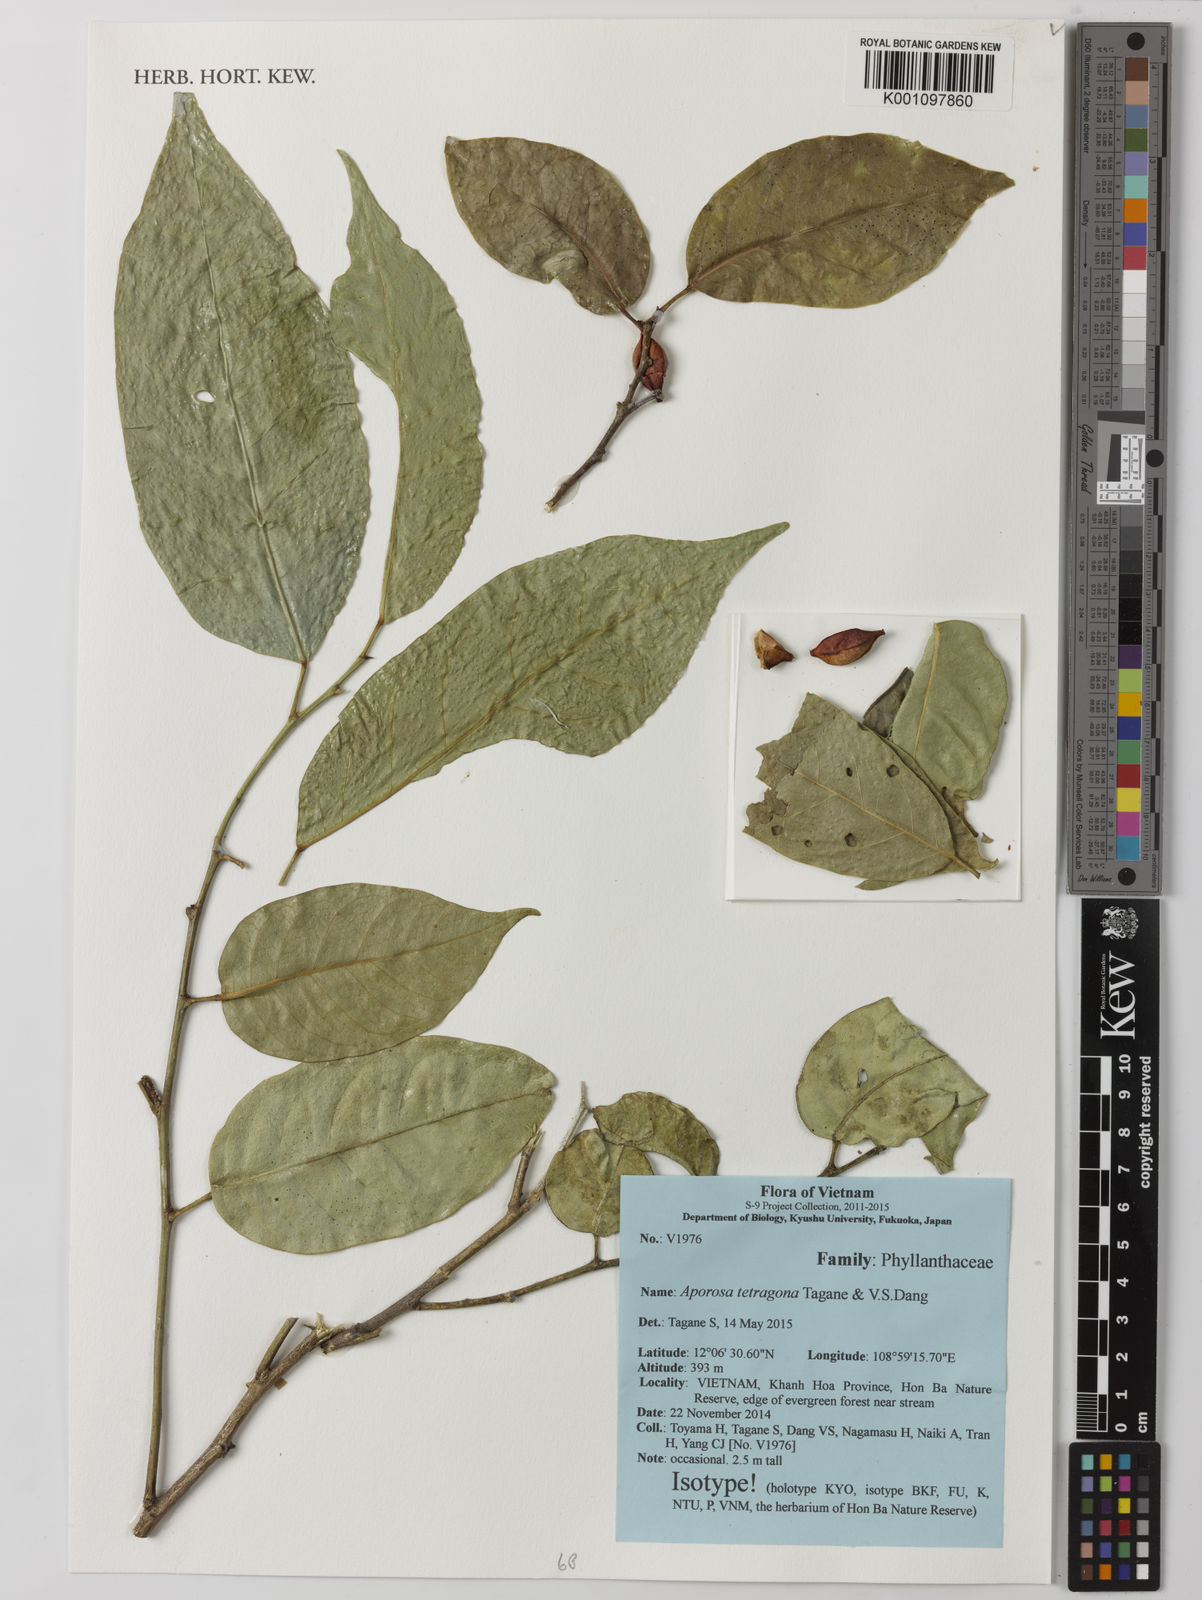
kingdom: Plantae
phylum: Tracheophyta
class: Magnoliopsida
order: Malpighiales
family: Phyllanthaceae
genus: Aporosa
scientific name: Aporosa tetragona
